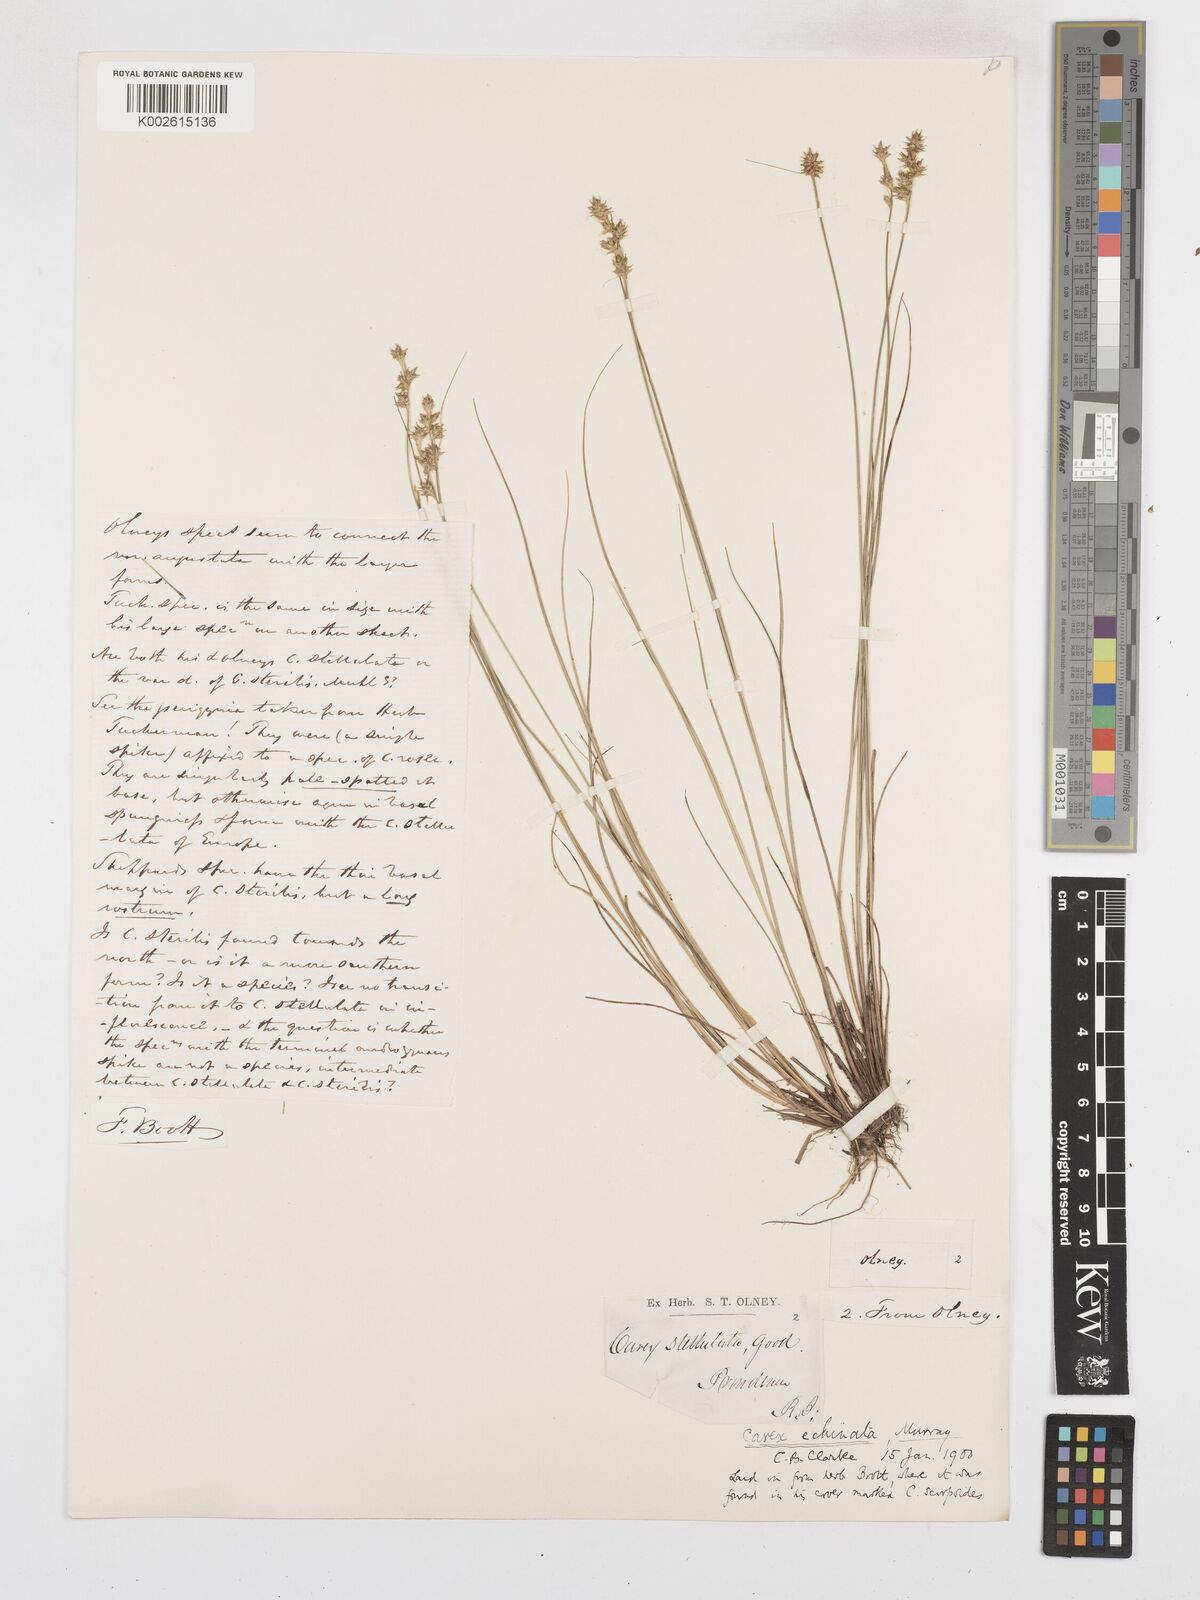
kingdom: Plantae
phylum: Tracheophyta
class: Liliopsida
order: Poales
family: Cyperaceae
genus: Carex
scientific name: Carex echinata
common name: Star sedge
